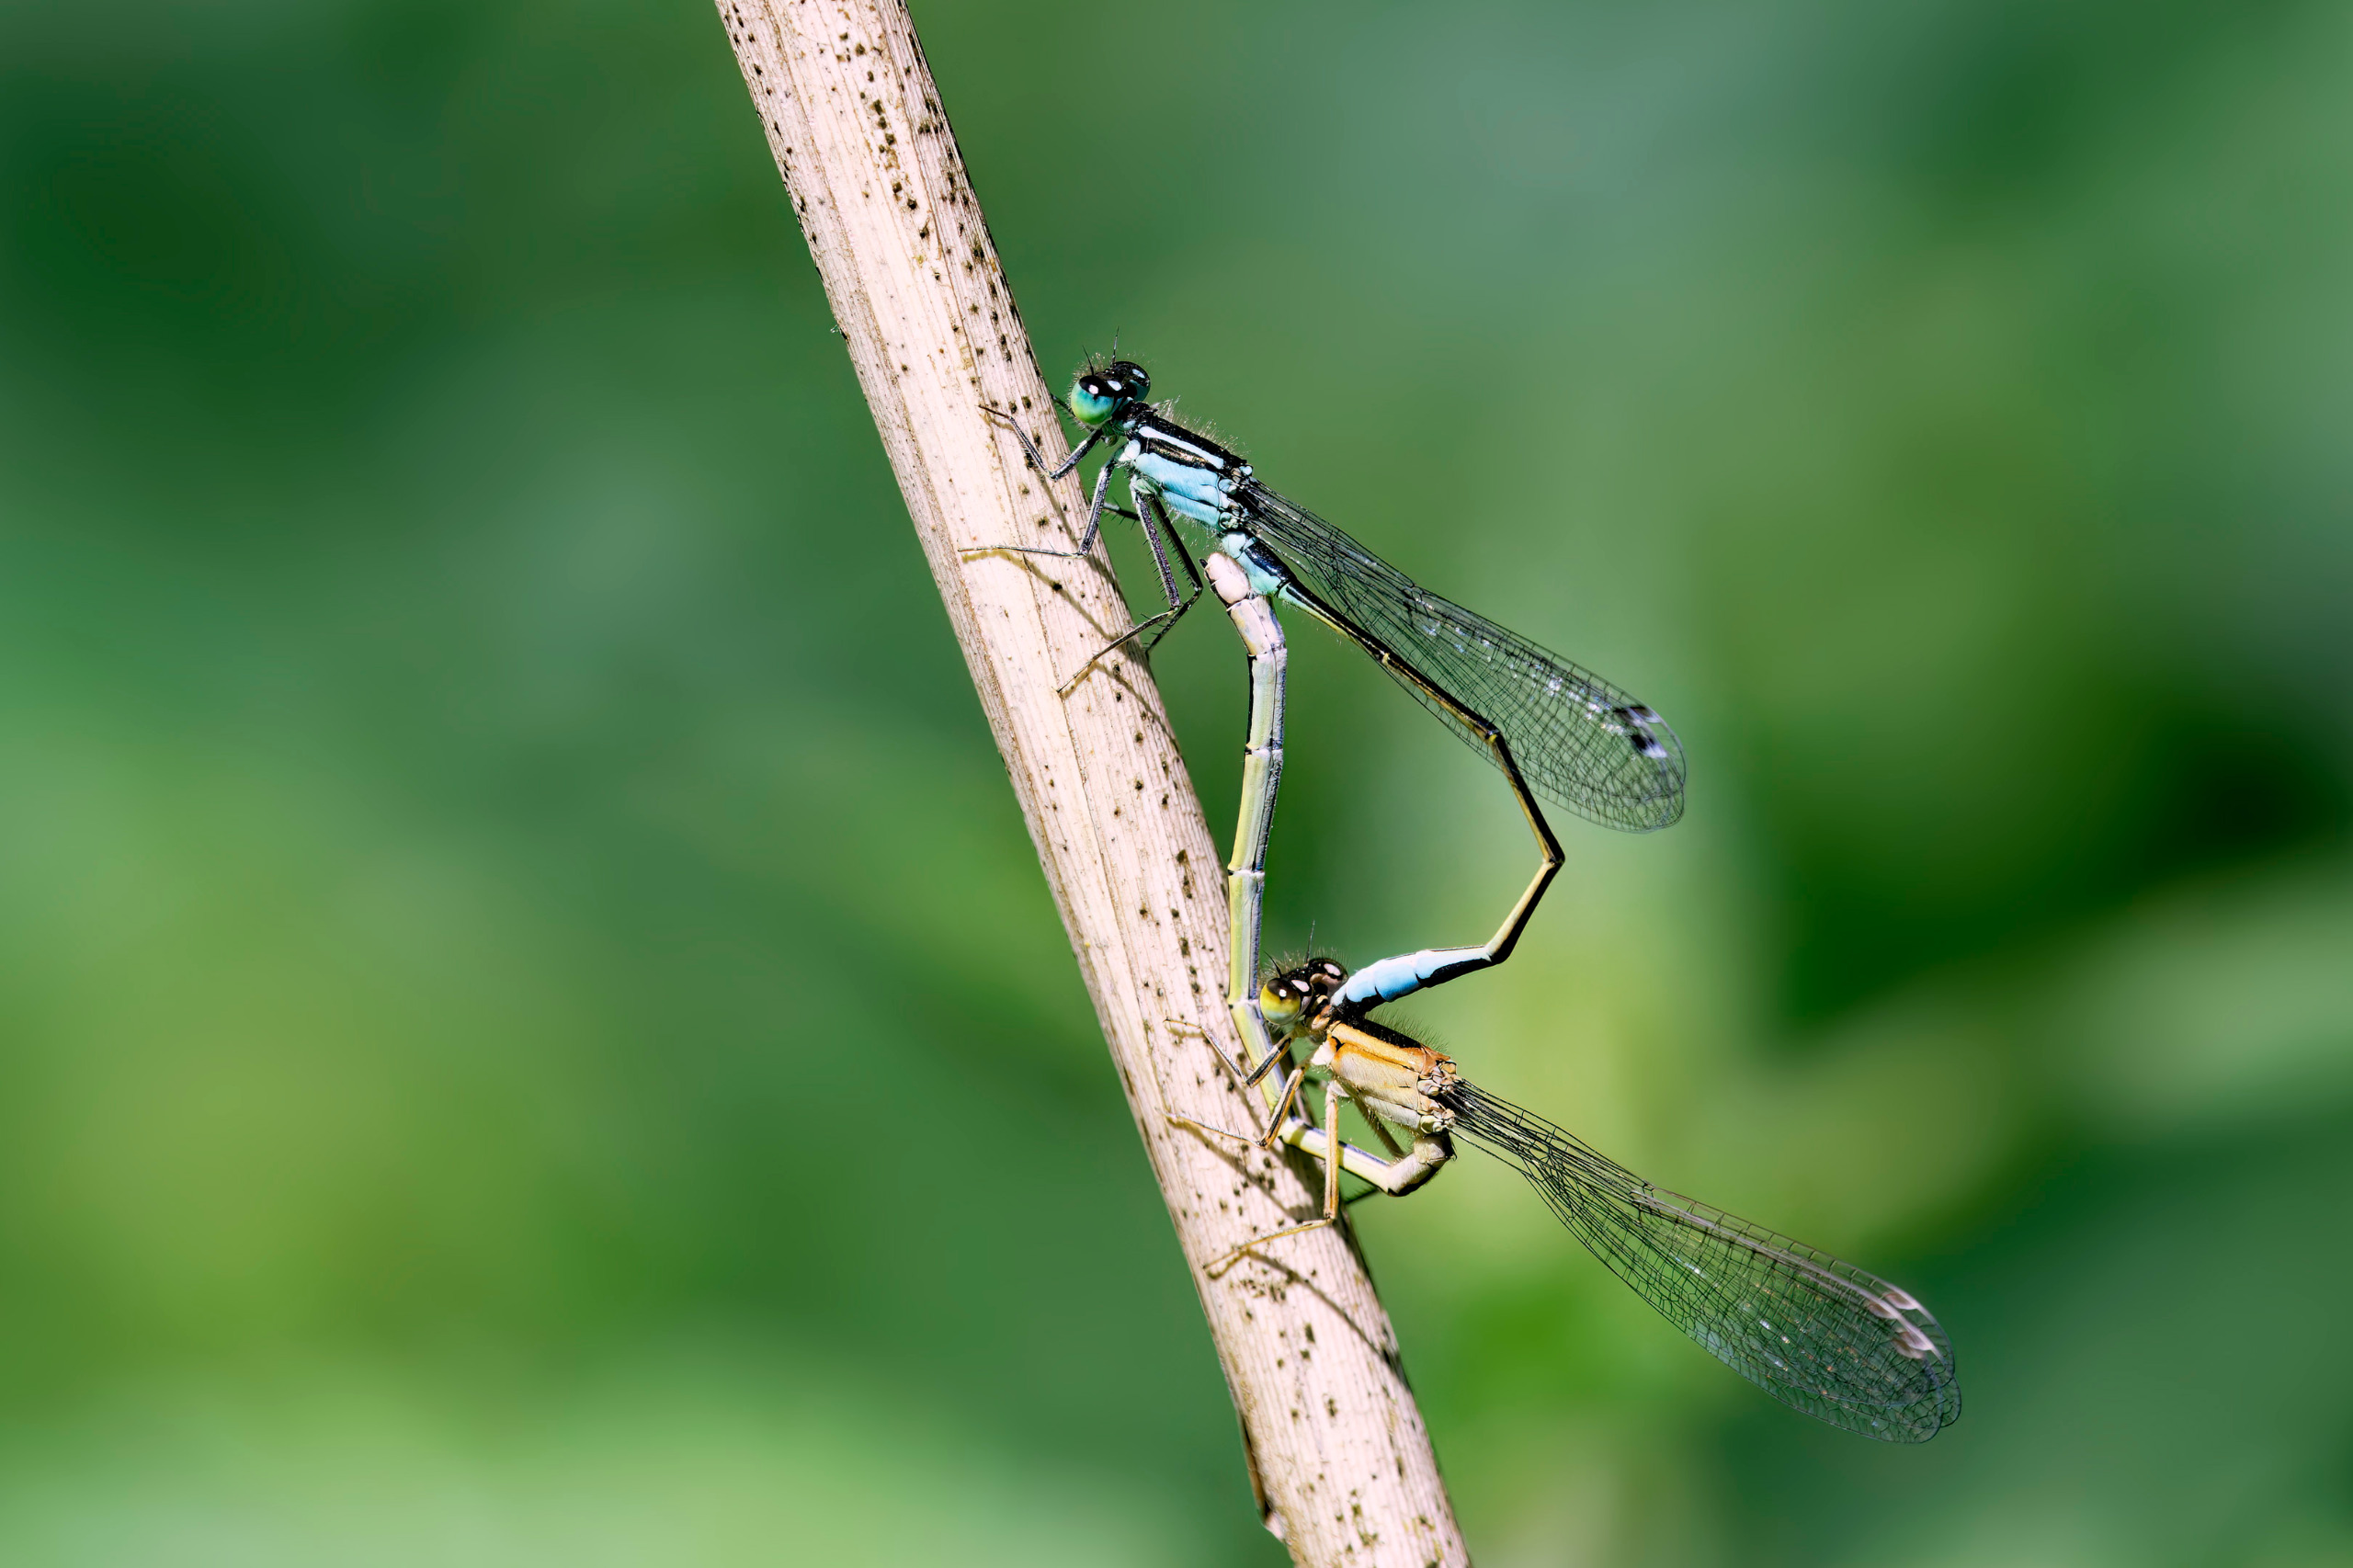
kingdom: Animalia
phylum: Arthropoda
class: Insecta
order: Odonata
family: Coenagrionidae
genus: Ischnura
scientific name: Ischnura elegans
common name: Stor farvevandnymfe
